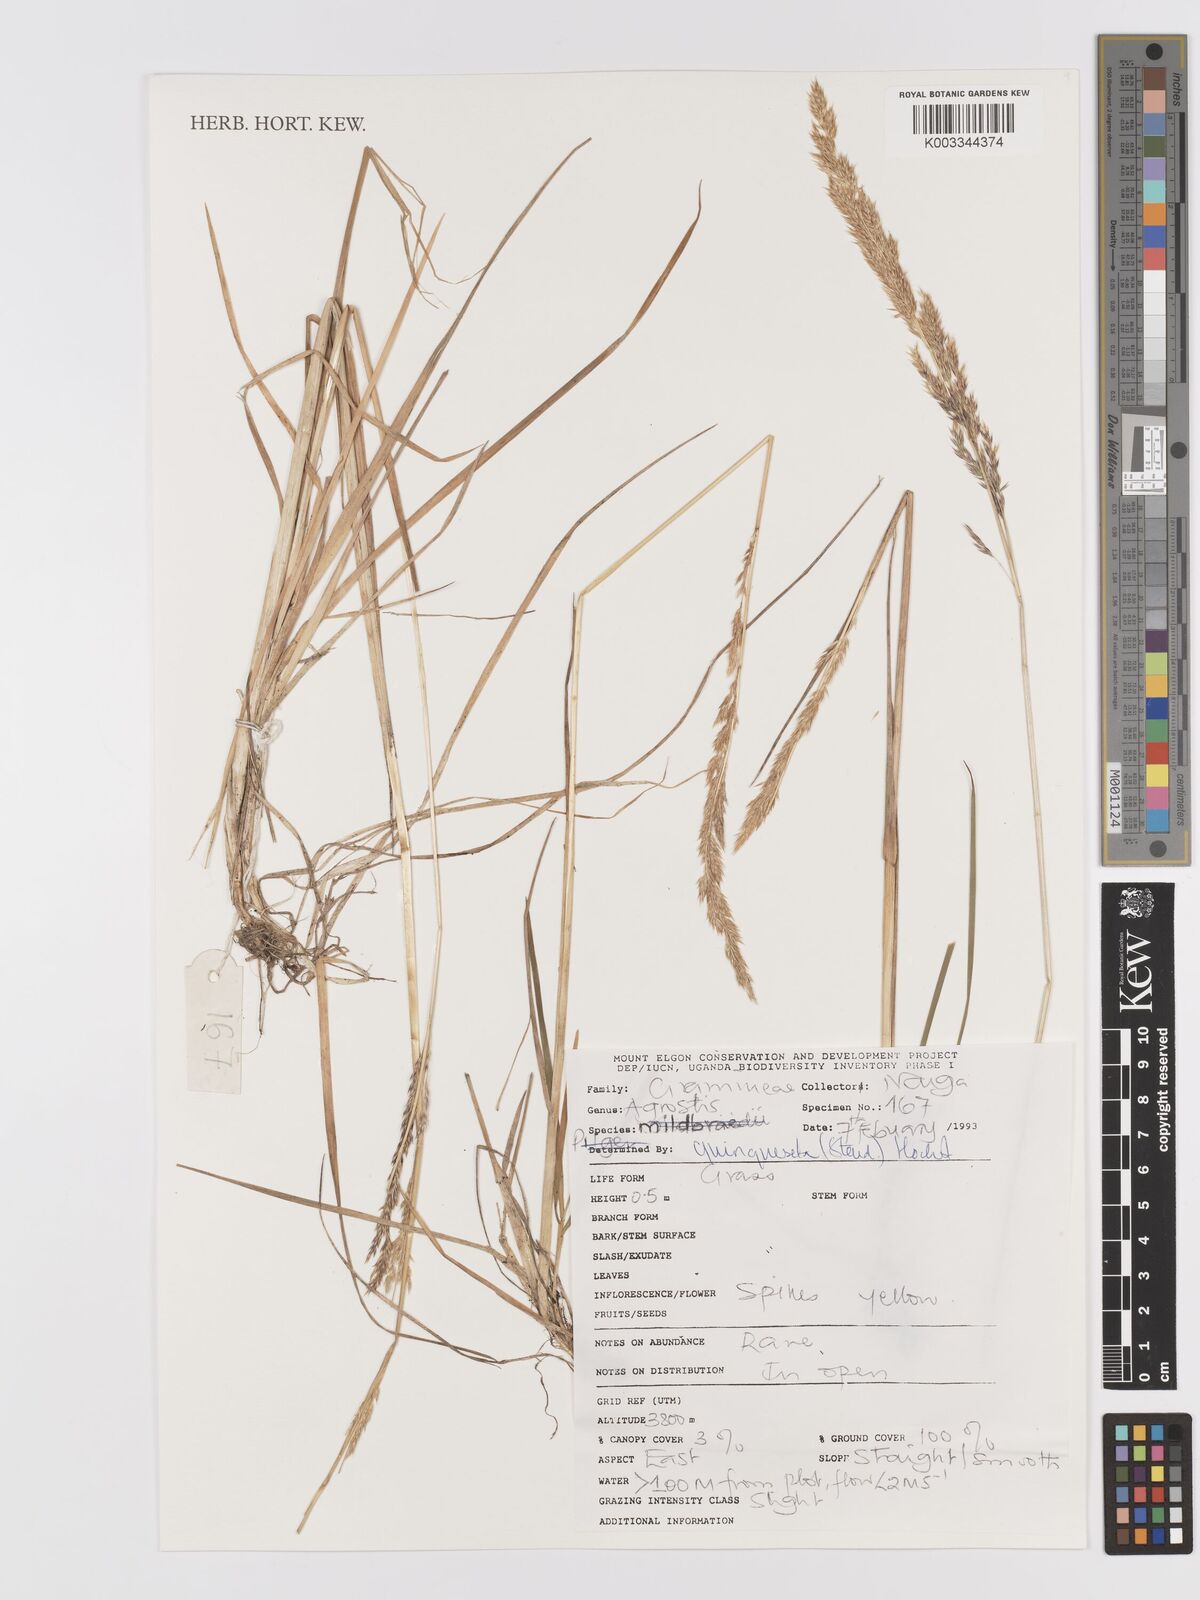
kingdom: Plantae
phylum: Tracheophyta
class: Liliopsida
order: Poales
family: Poaceae
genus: Agrostis
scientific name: Agrostis quinqueseta
